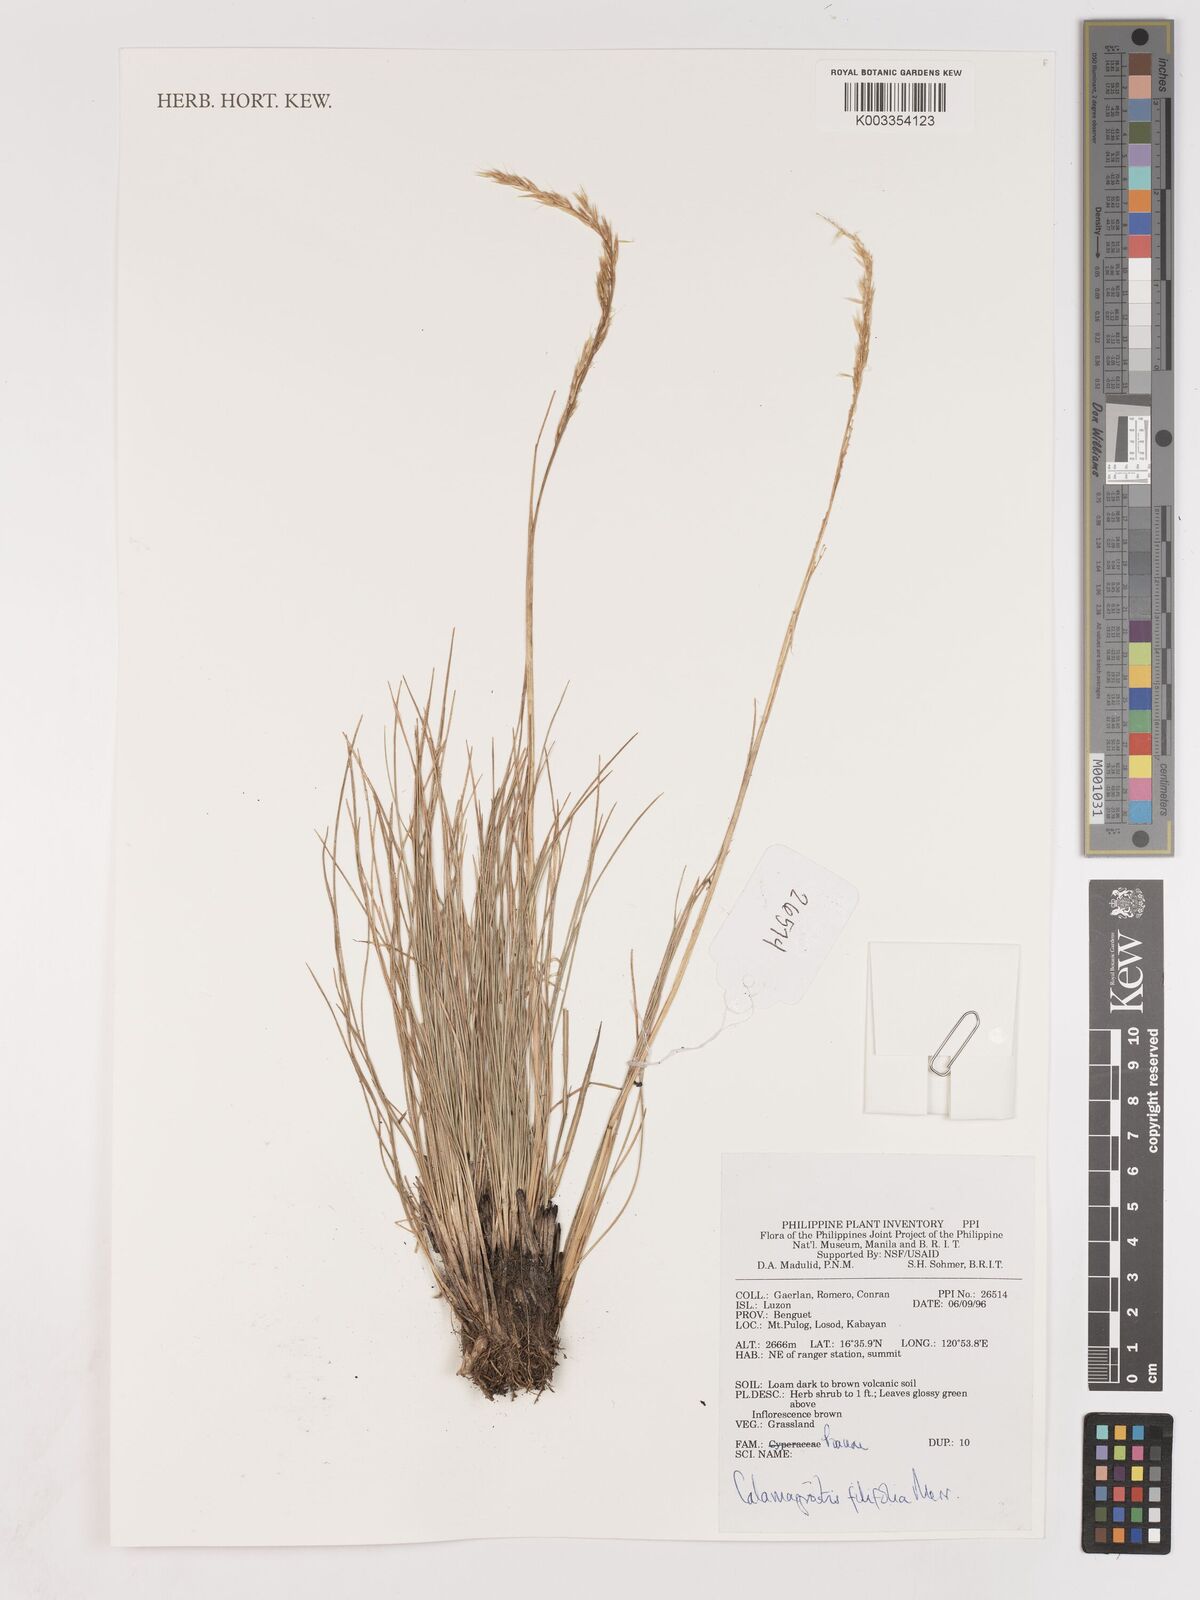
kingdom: Plantae
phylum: Tracheophyta
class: Liliopsida
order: Poales
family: Poaceae
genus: Calamagrostis
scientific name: Calamagrostis filifolia
